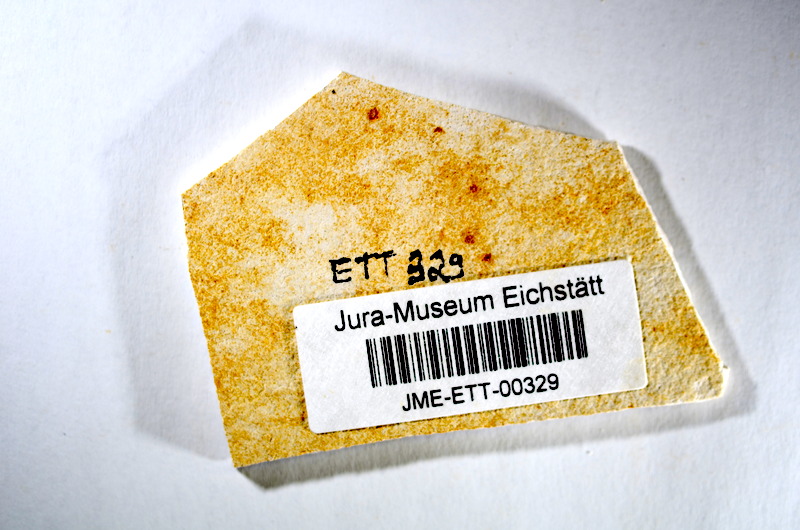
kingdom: Animalia
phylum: Chordata
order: Salmoniformes
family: Orthogonikleithridae
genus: Orthogonikleithrus
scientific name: Orthogonikleithrus hoelli
